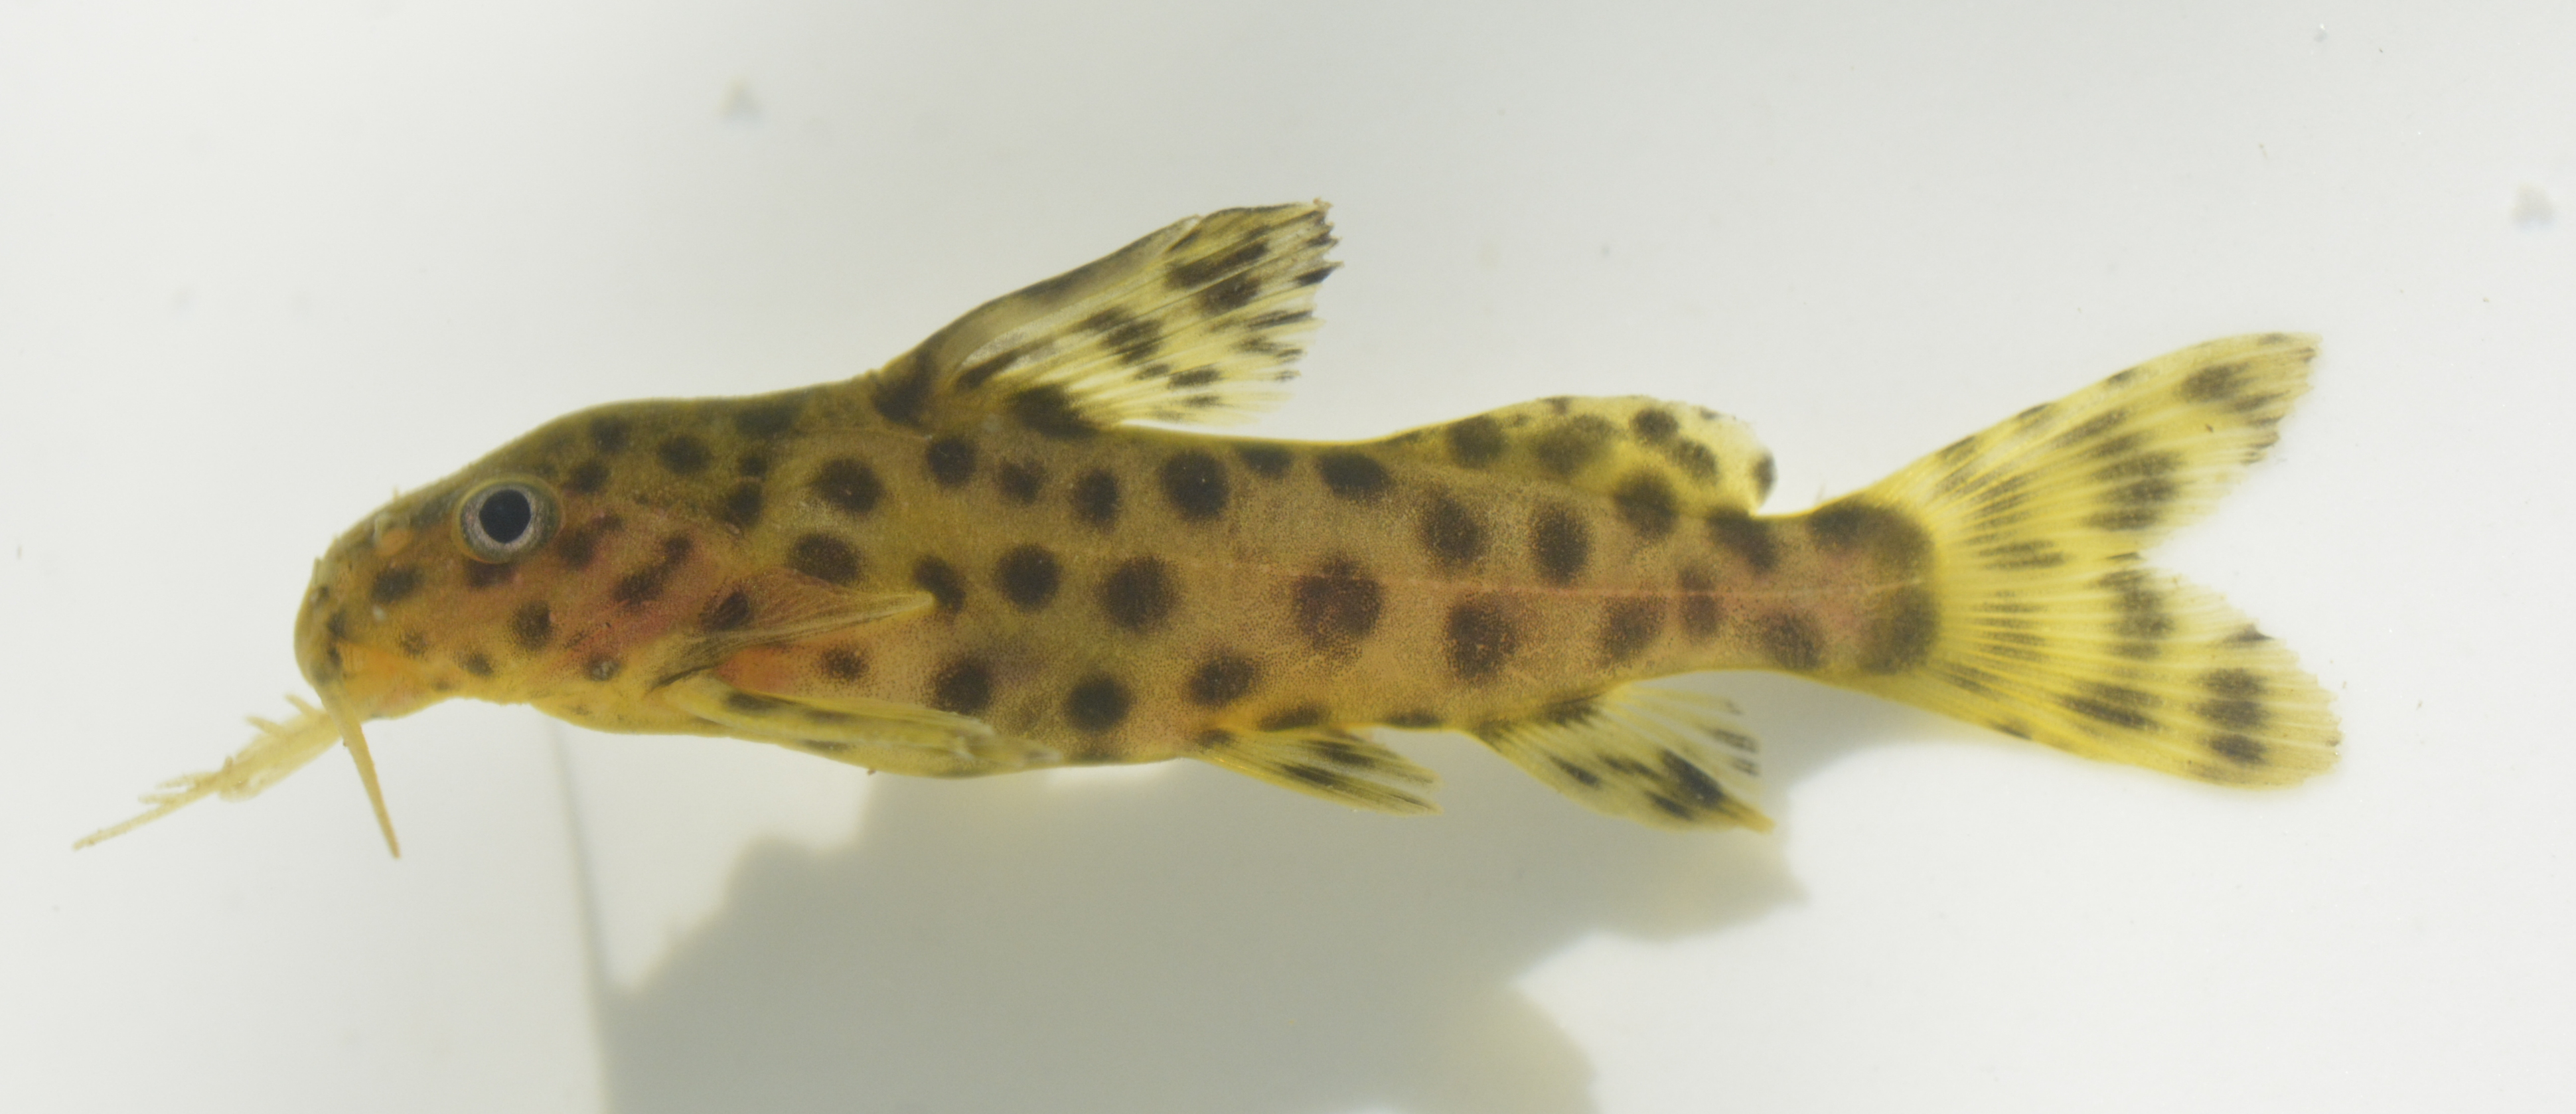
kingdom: Animalia
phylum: Chordata
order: Siluriformes
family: Mochokidae
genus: Synodontis
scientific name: Synodontis nigromaculatus
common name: Blackspotted squeaker
